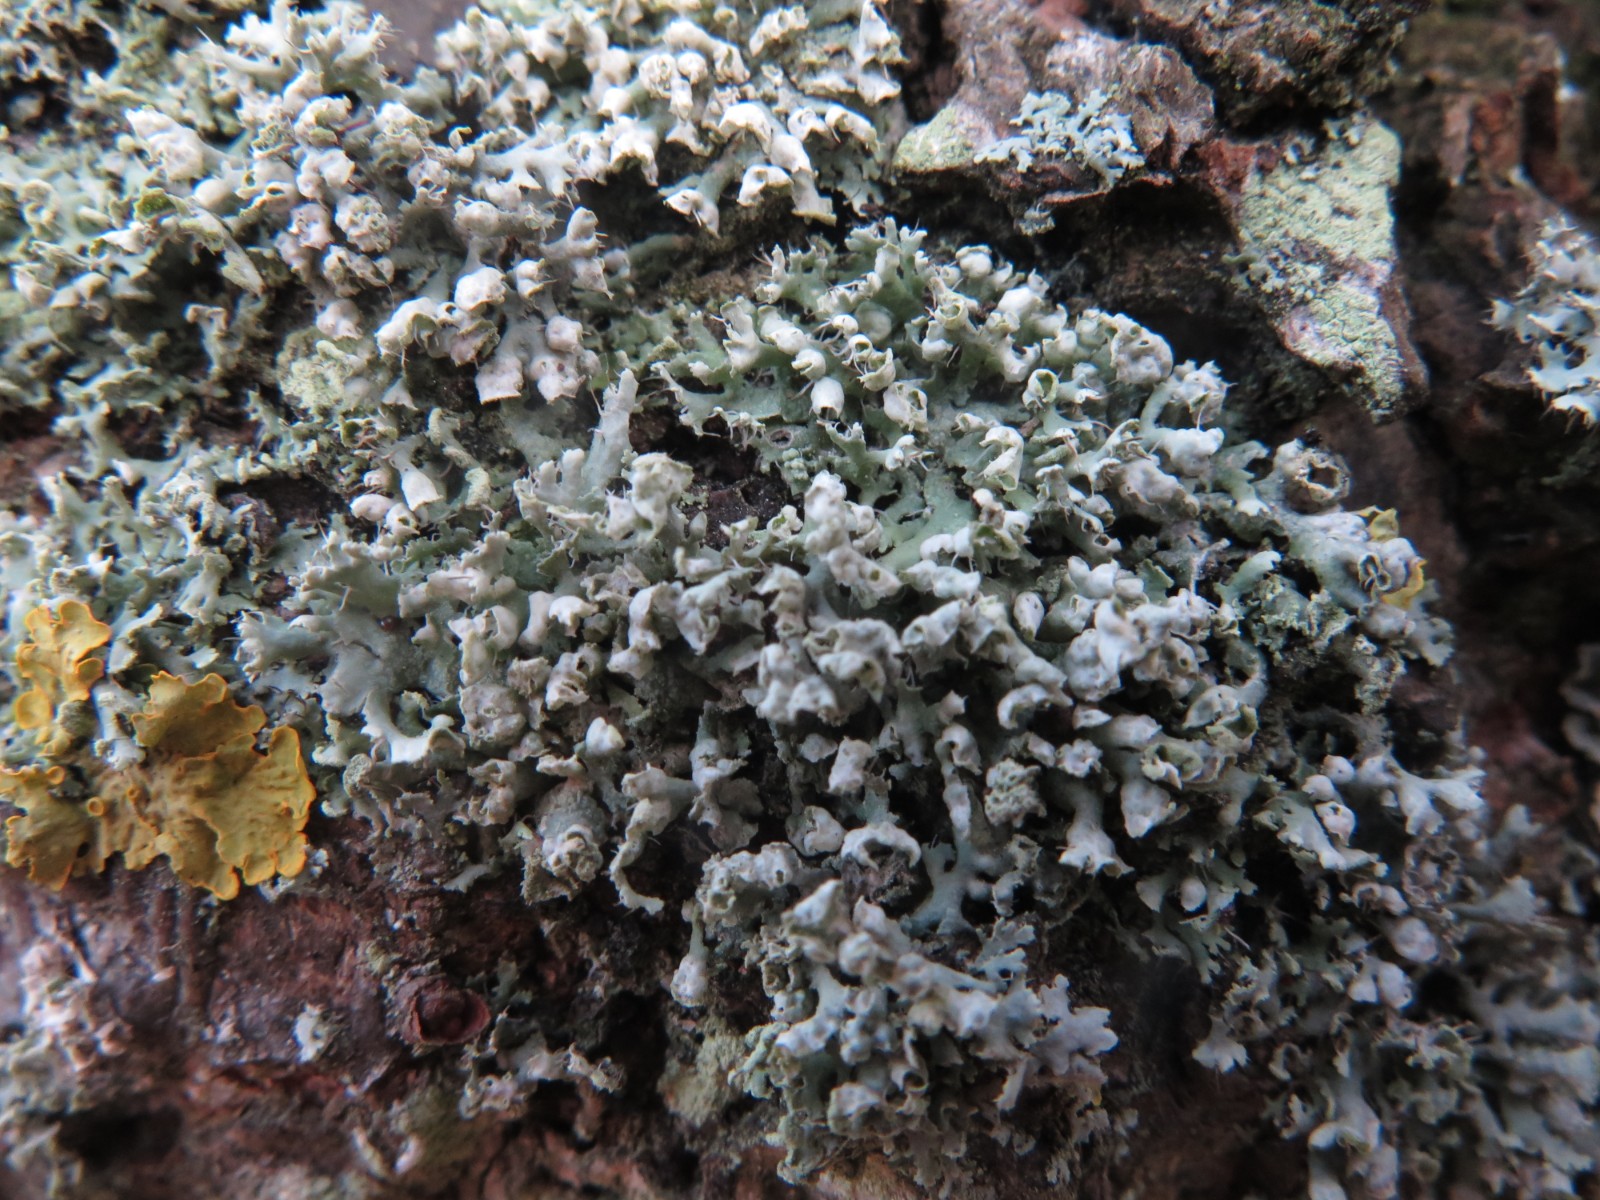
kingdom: Fungi
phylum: Ascomycota
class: Lecanoromycetes
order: Caliciales
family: Physciaceae
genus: Physcia
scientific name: Physcia adscendens
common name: hætte-rosetlav
